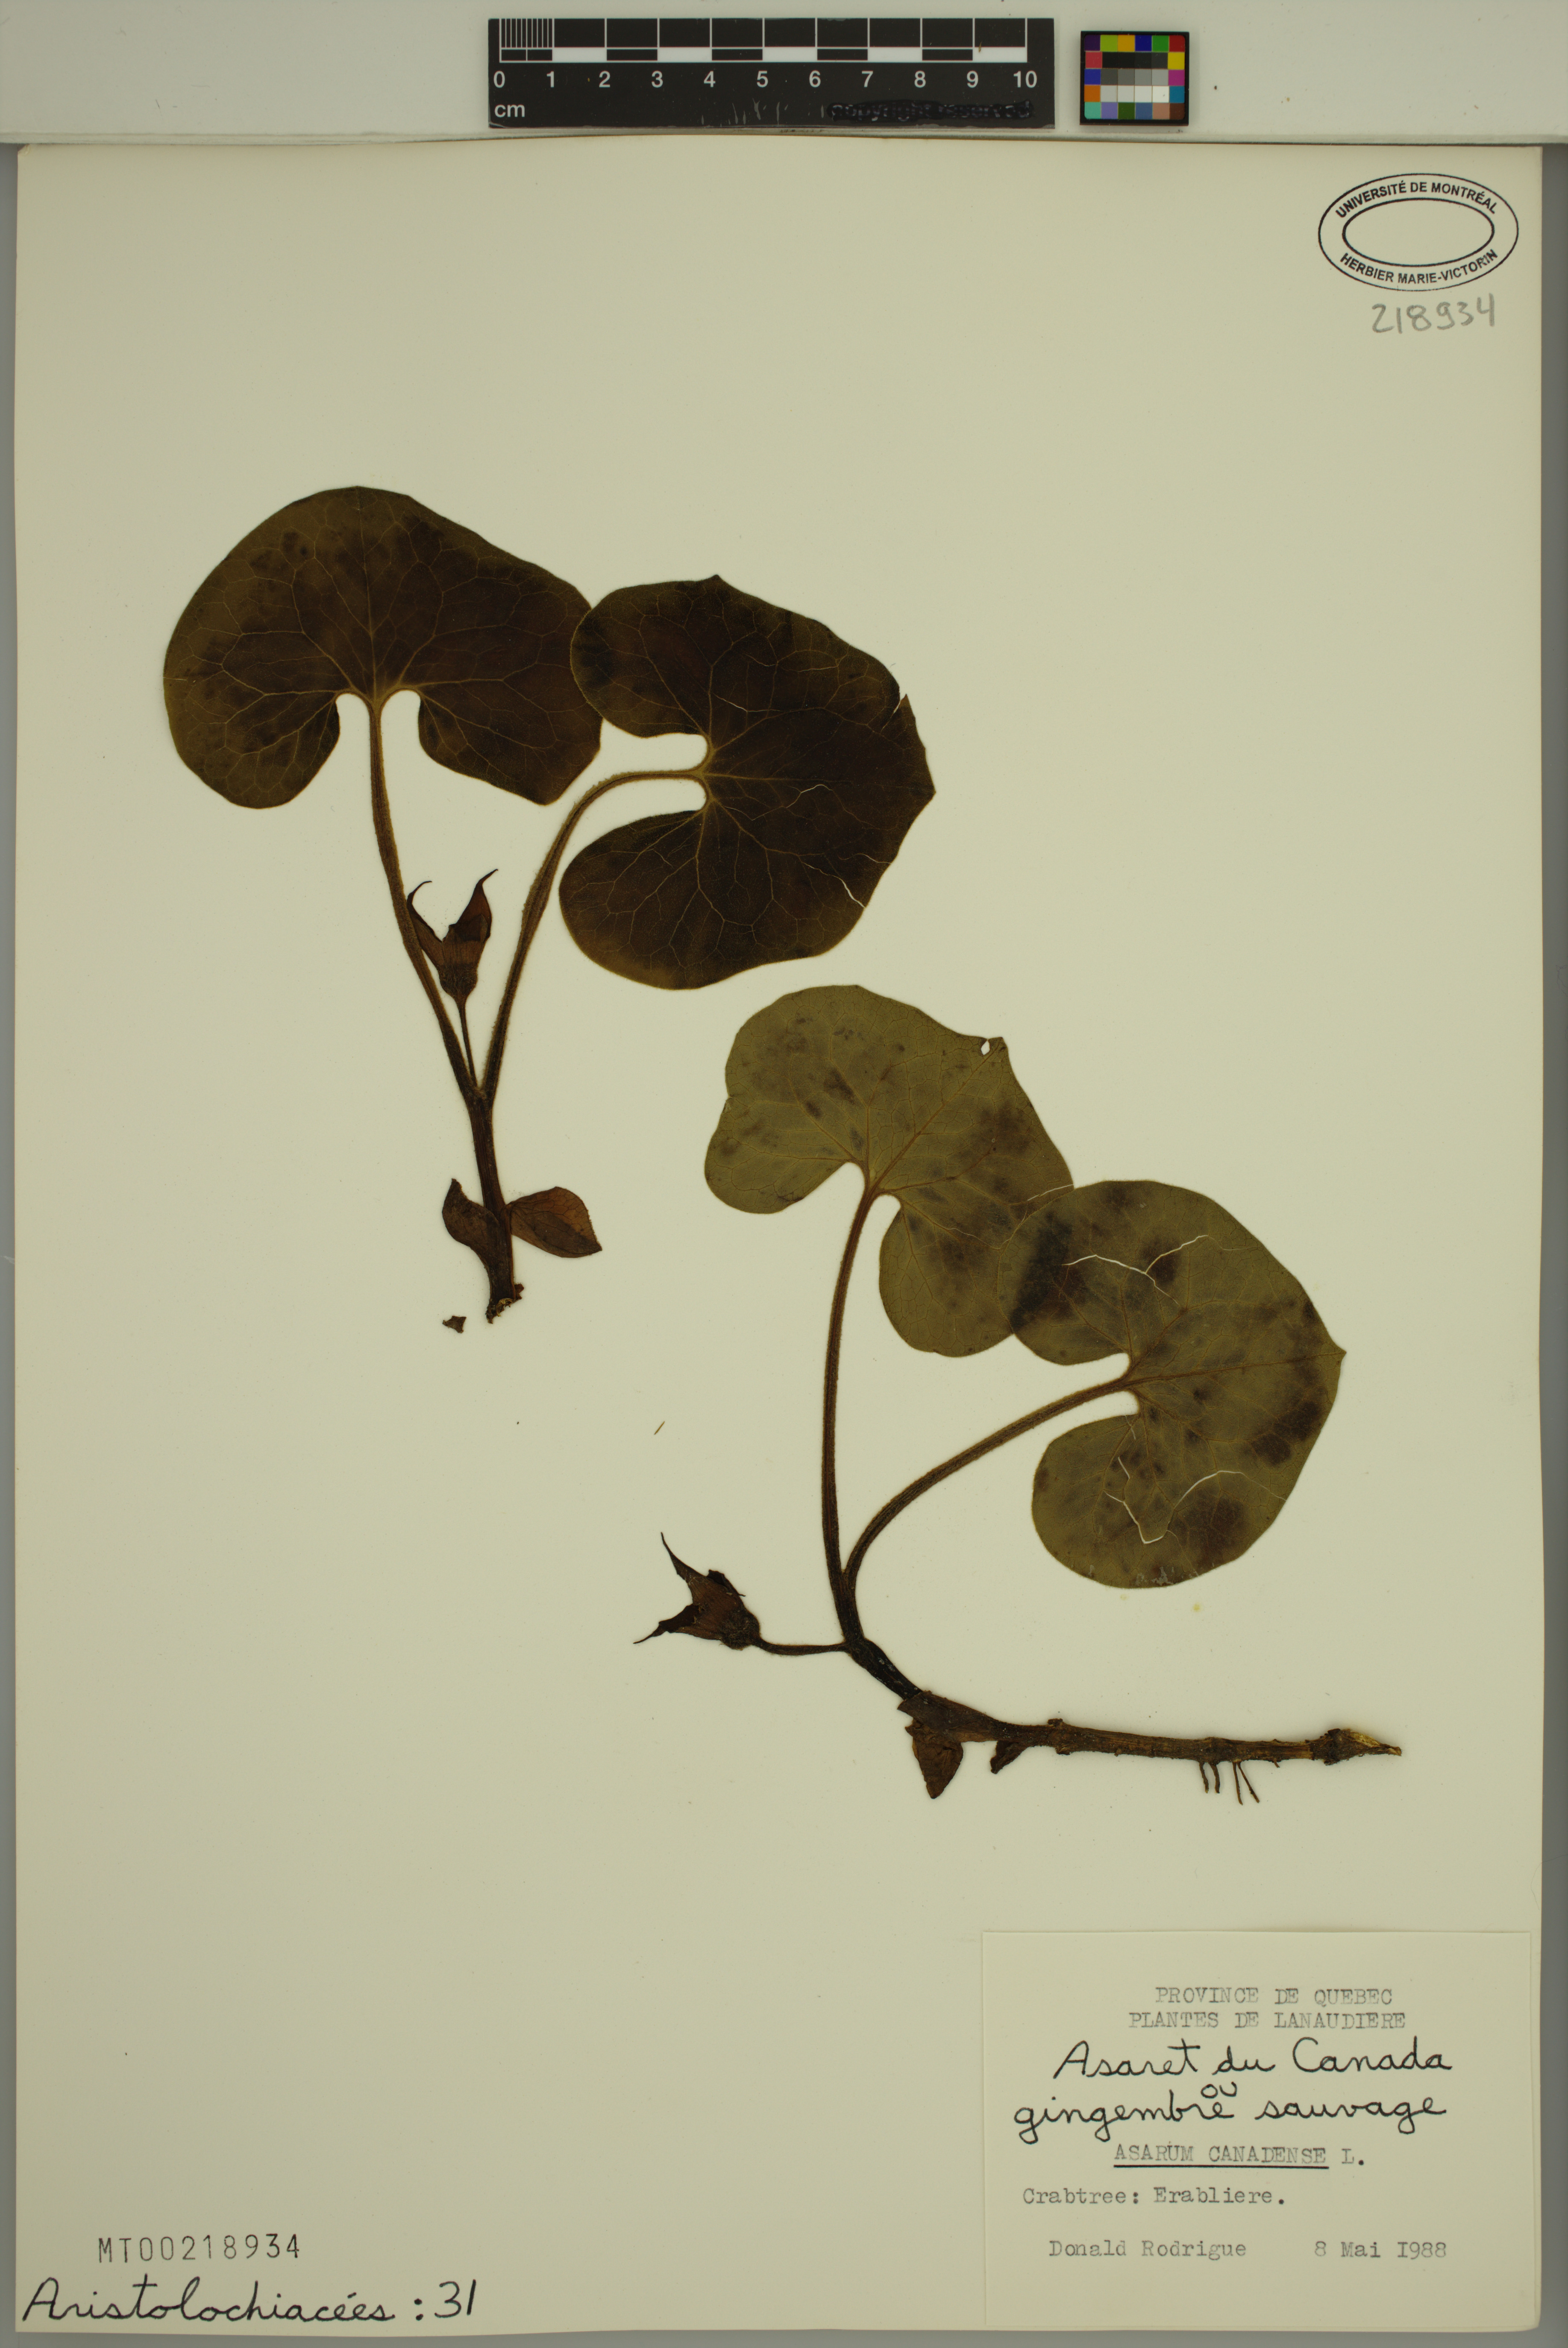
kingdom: Plantae
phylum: Tracheophyta
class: Magnoliopsida
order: Piperales
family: Aristolochiaceae
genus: Asarum
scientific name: Asarum canadense
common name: Wild ginger
